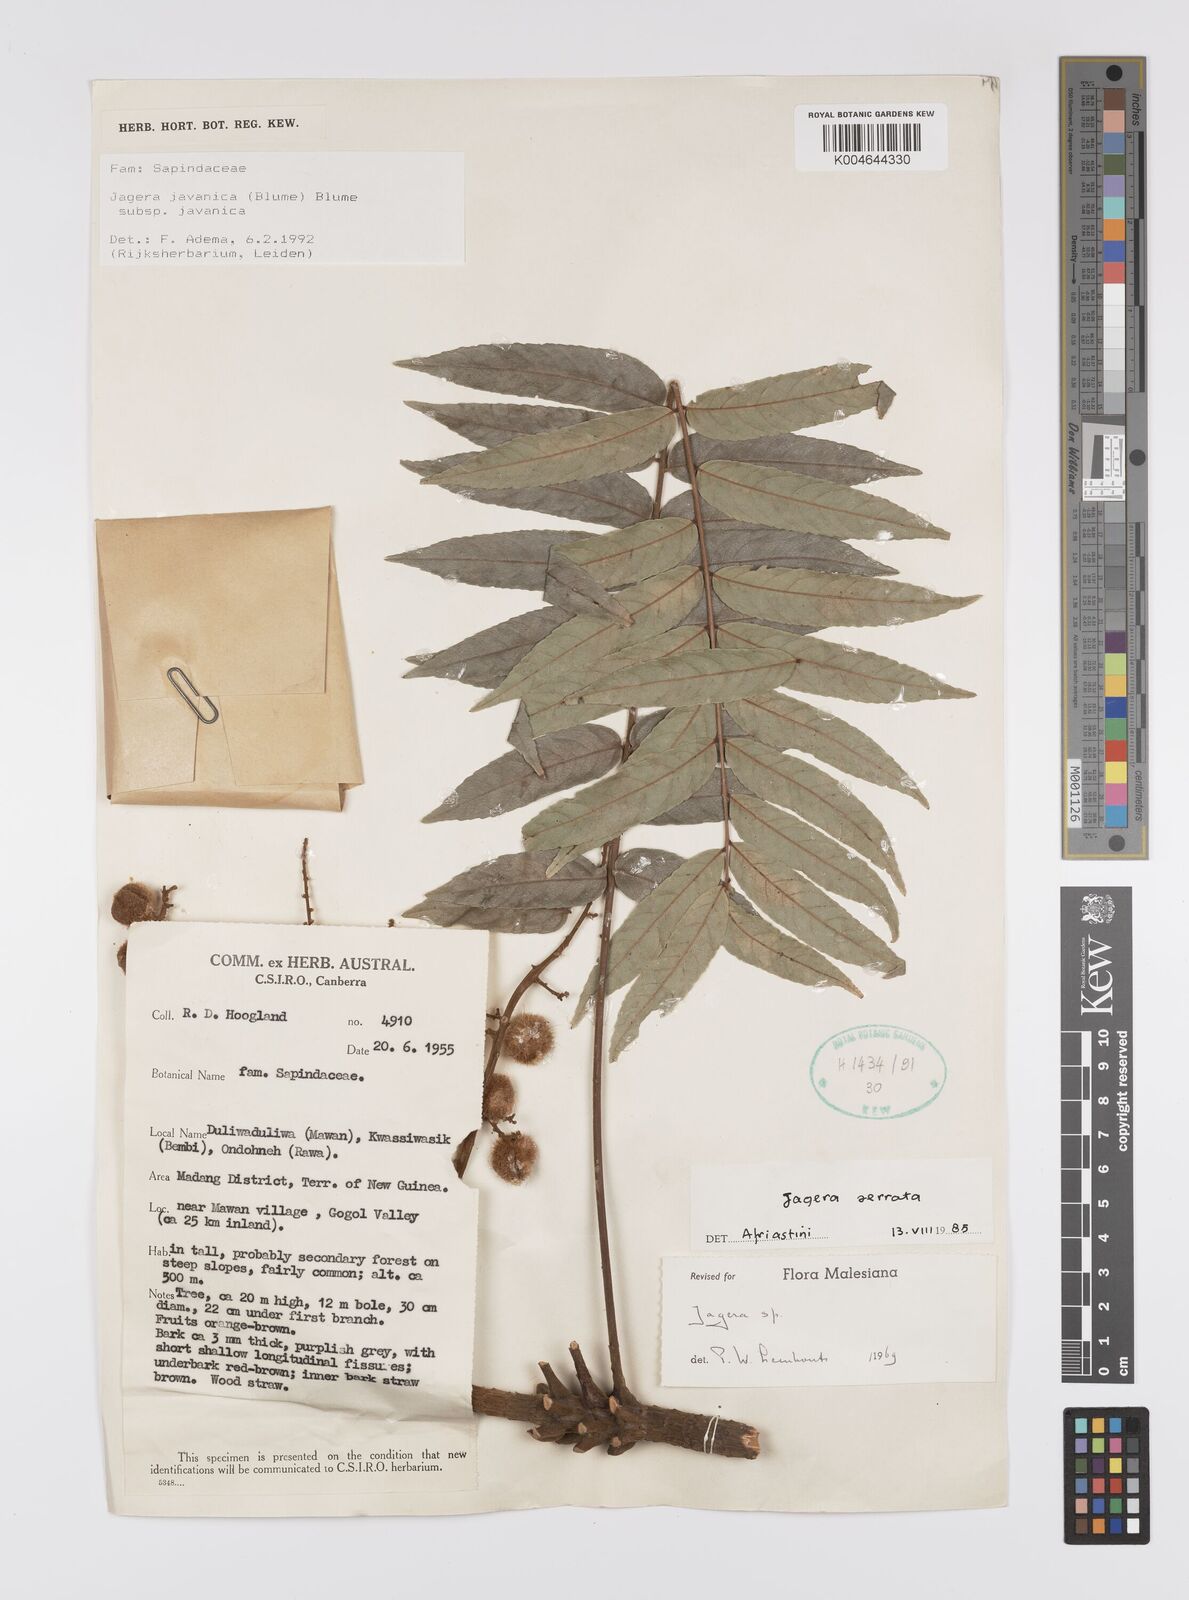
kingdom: Plantae
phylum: Tracheophyta
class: Magnoliopsida
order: Sapindales
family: Sapindaceae
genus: Jagera
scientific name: Jagera javanica
